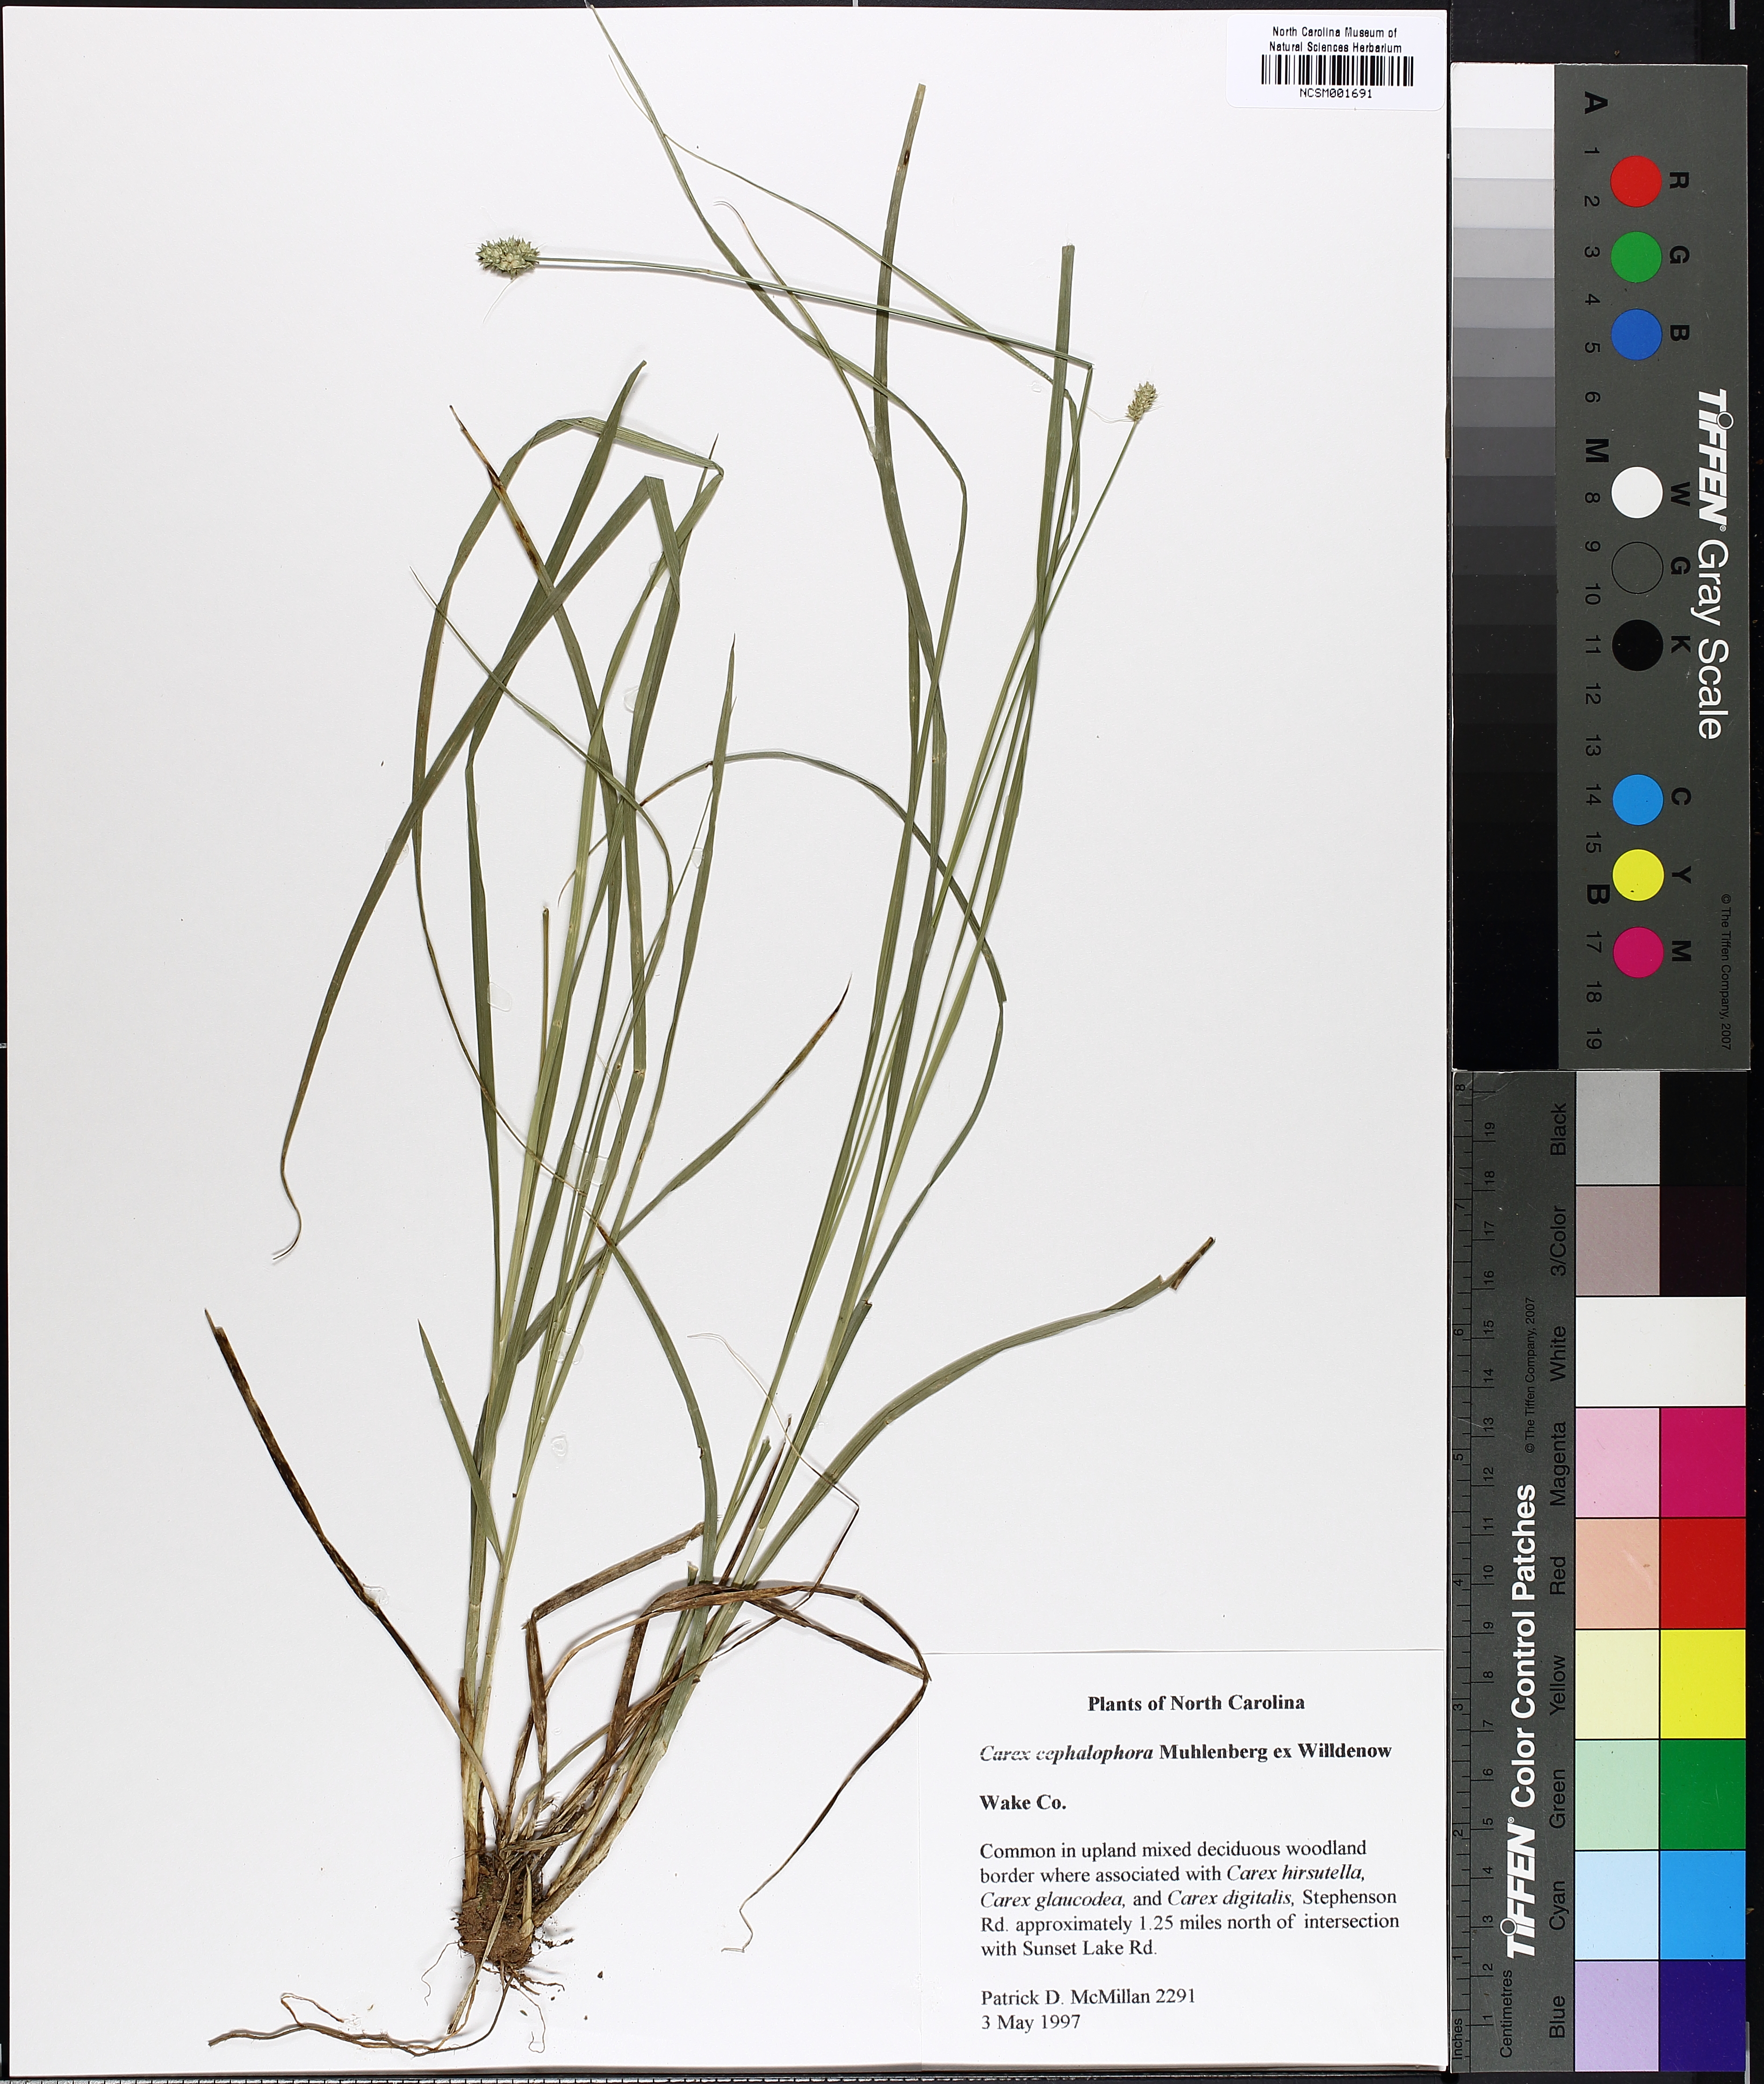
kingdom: Plantae
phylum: Tracheophyta
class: Liliopsida
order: Poales
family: Cyperaceae
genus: Carex
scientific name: Carex cephalophora
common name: Oval-headed sedge
